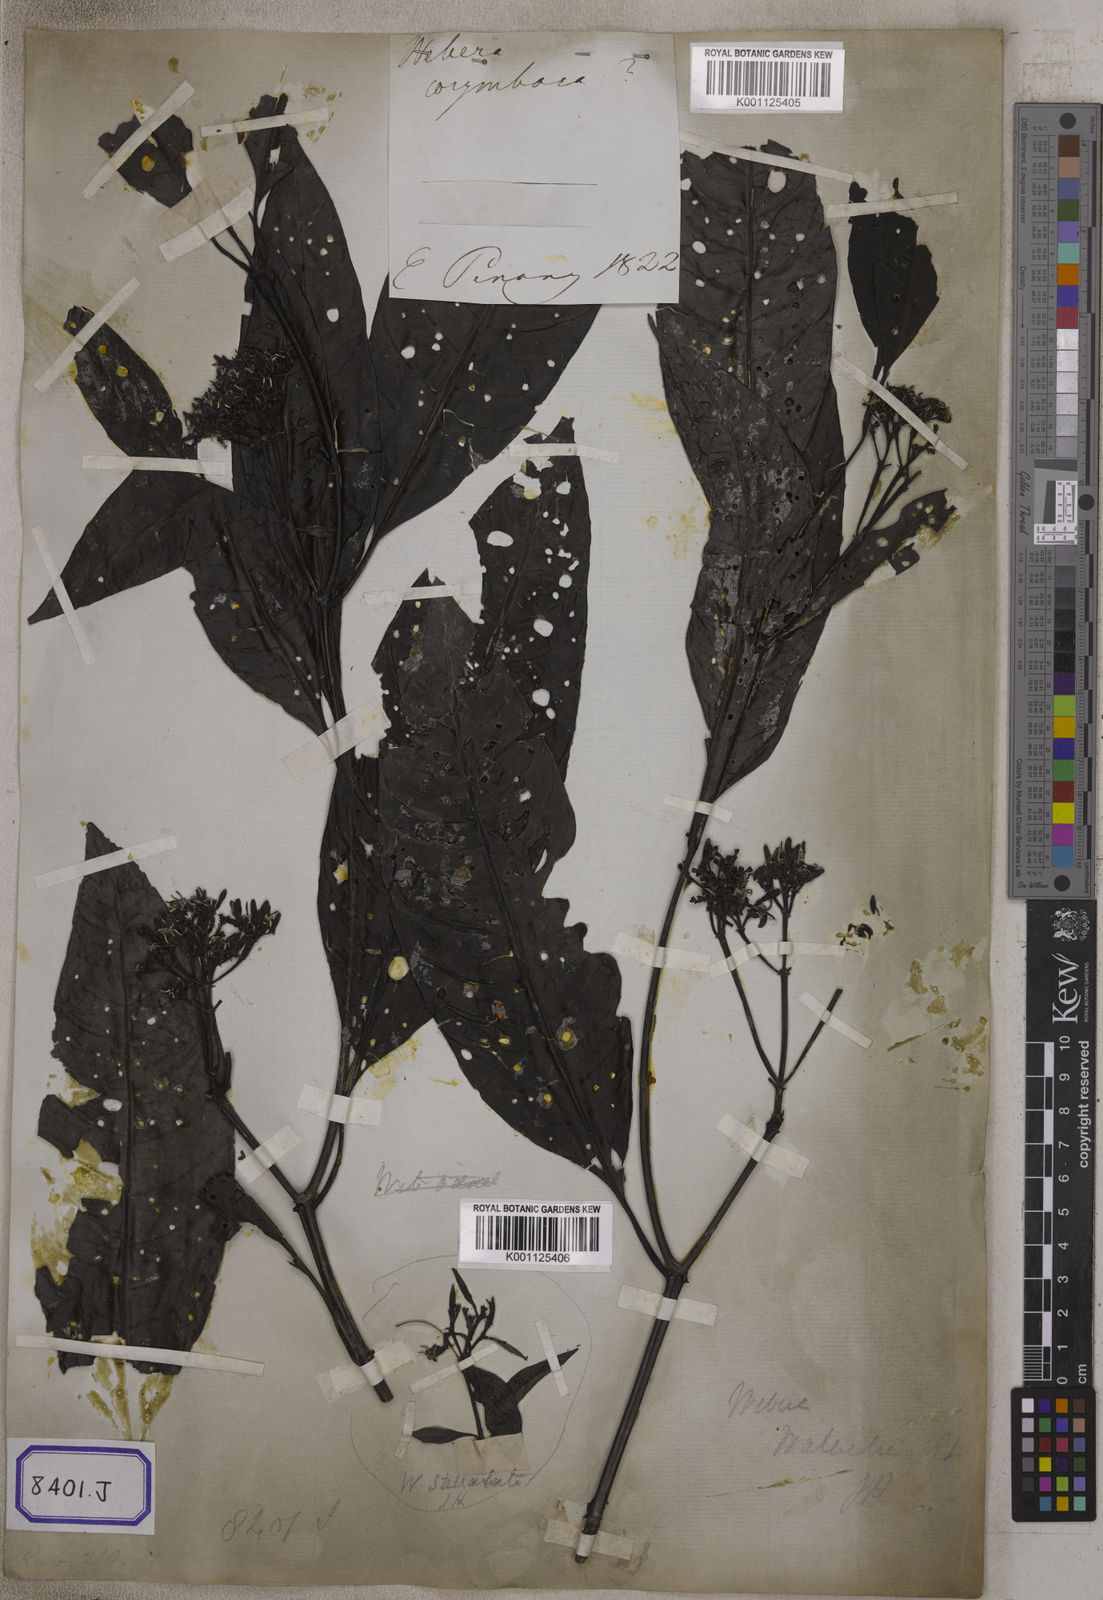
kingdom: Plantae
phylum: Tracheophyta
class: Magnoliopsida
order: Gentianales
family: Rubiaceae
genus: Tarenna
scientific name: Tarenna asiatica
